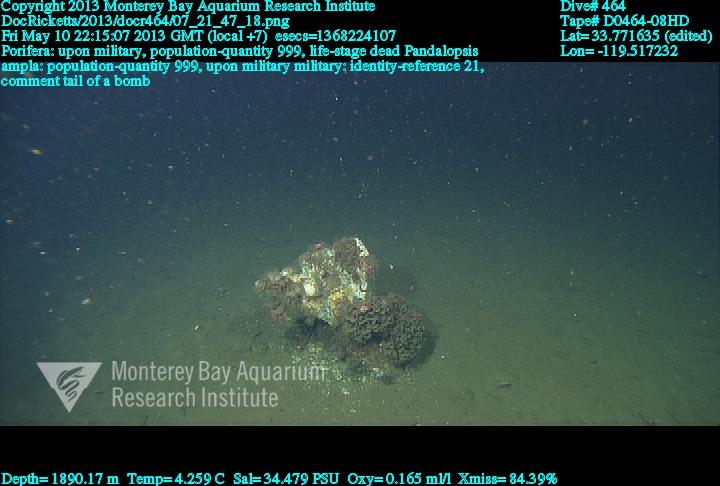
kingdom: Animalia
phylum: Porifera
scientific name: Porifera
